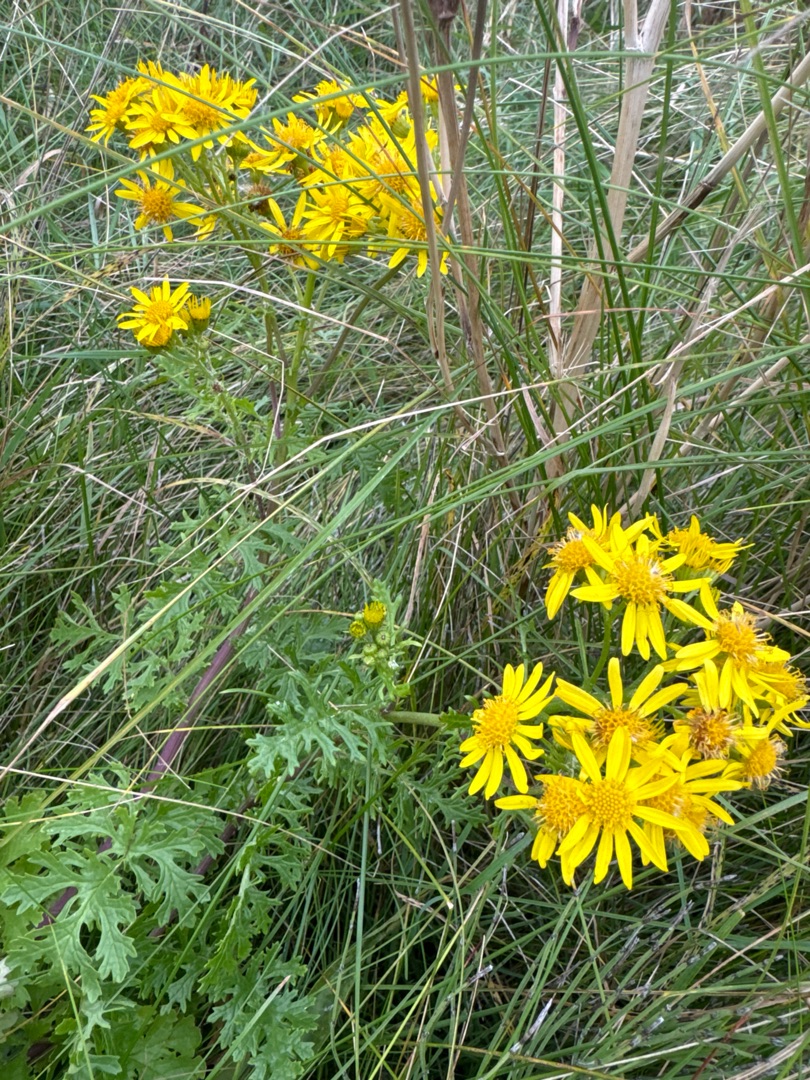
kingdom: Plantae
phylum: Tracheophyta
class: Magnoliopsida
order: Asterales
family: Asteraceae
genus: Jacobaea
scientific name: Jacobaea vulgaris
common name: Eng-brandbæger
